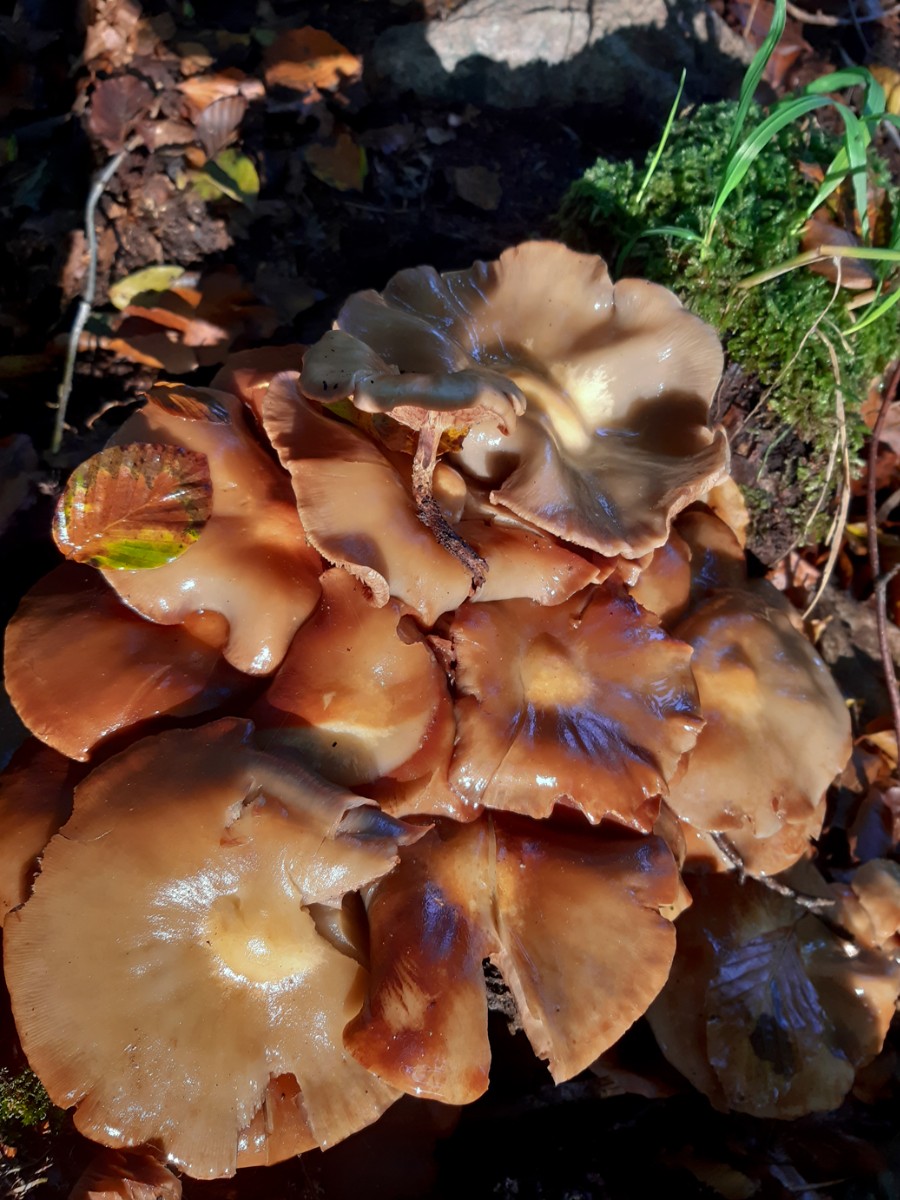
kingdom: Fungi
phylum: Basidiomycota
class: Agaricomycetes
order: Agaricales
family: Strophariaceae
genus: Kuehneromyces
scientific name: Kuehneromyces mutabilis
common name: foranderlig skælhat
